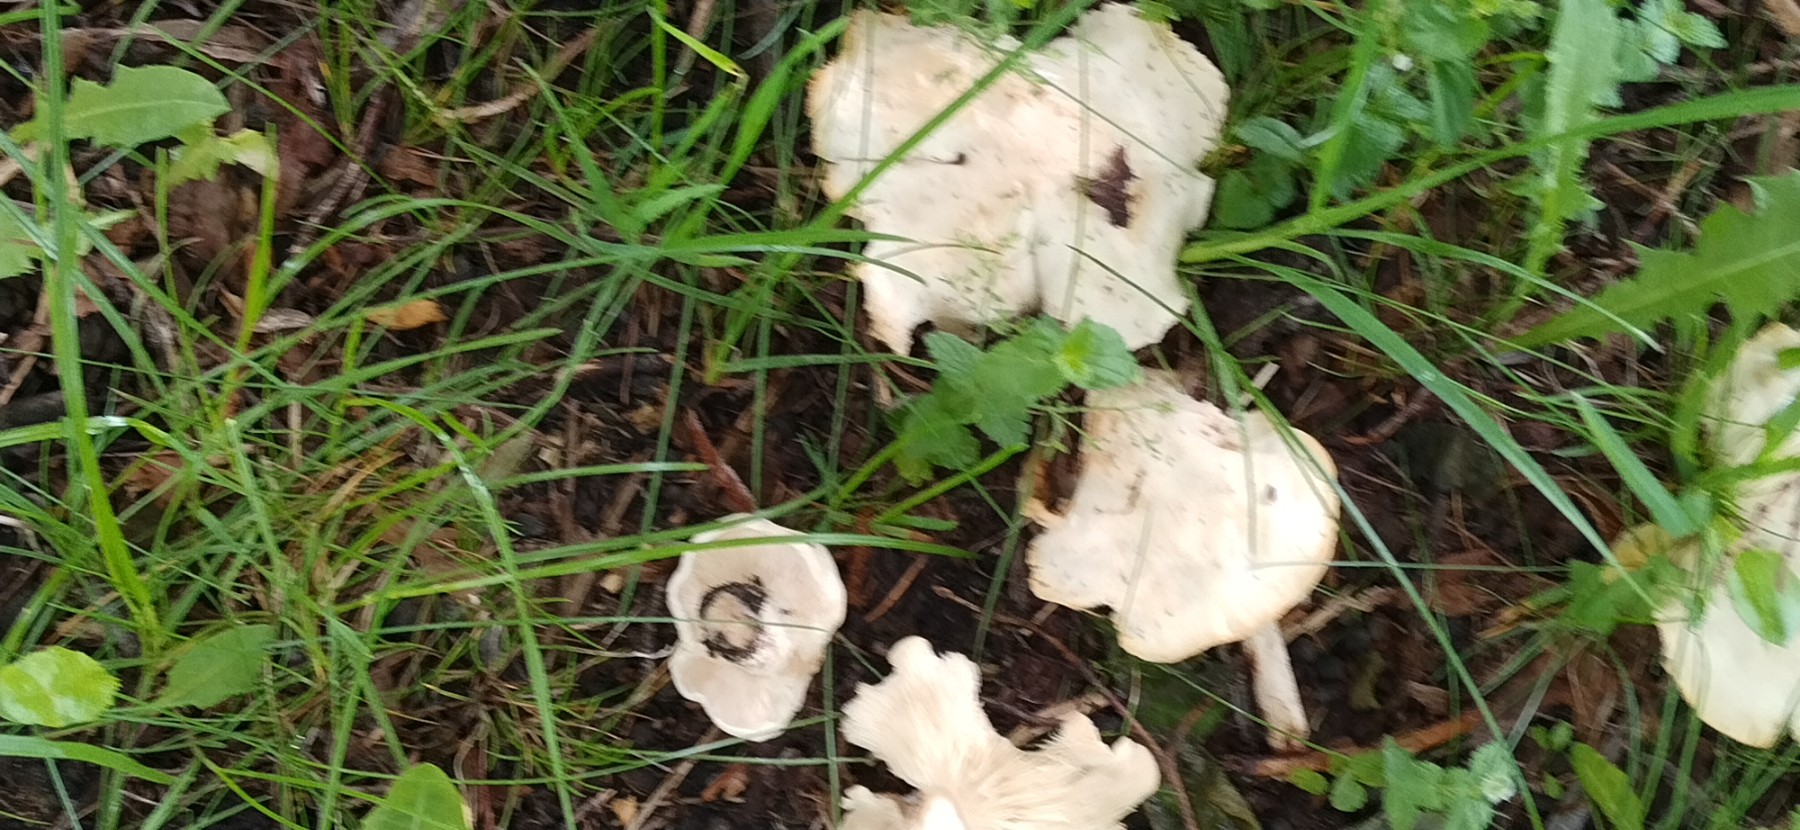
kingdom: Fungi
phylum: Basidiomycota
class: Agaricomycetes
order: Agaricales
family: Lyophyllaceae
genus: Calocybe
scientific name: Calocybe gambosa
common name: vårmusseron
